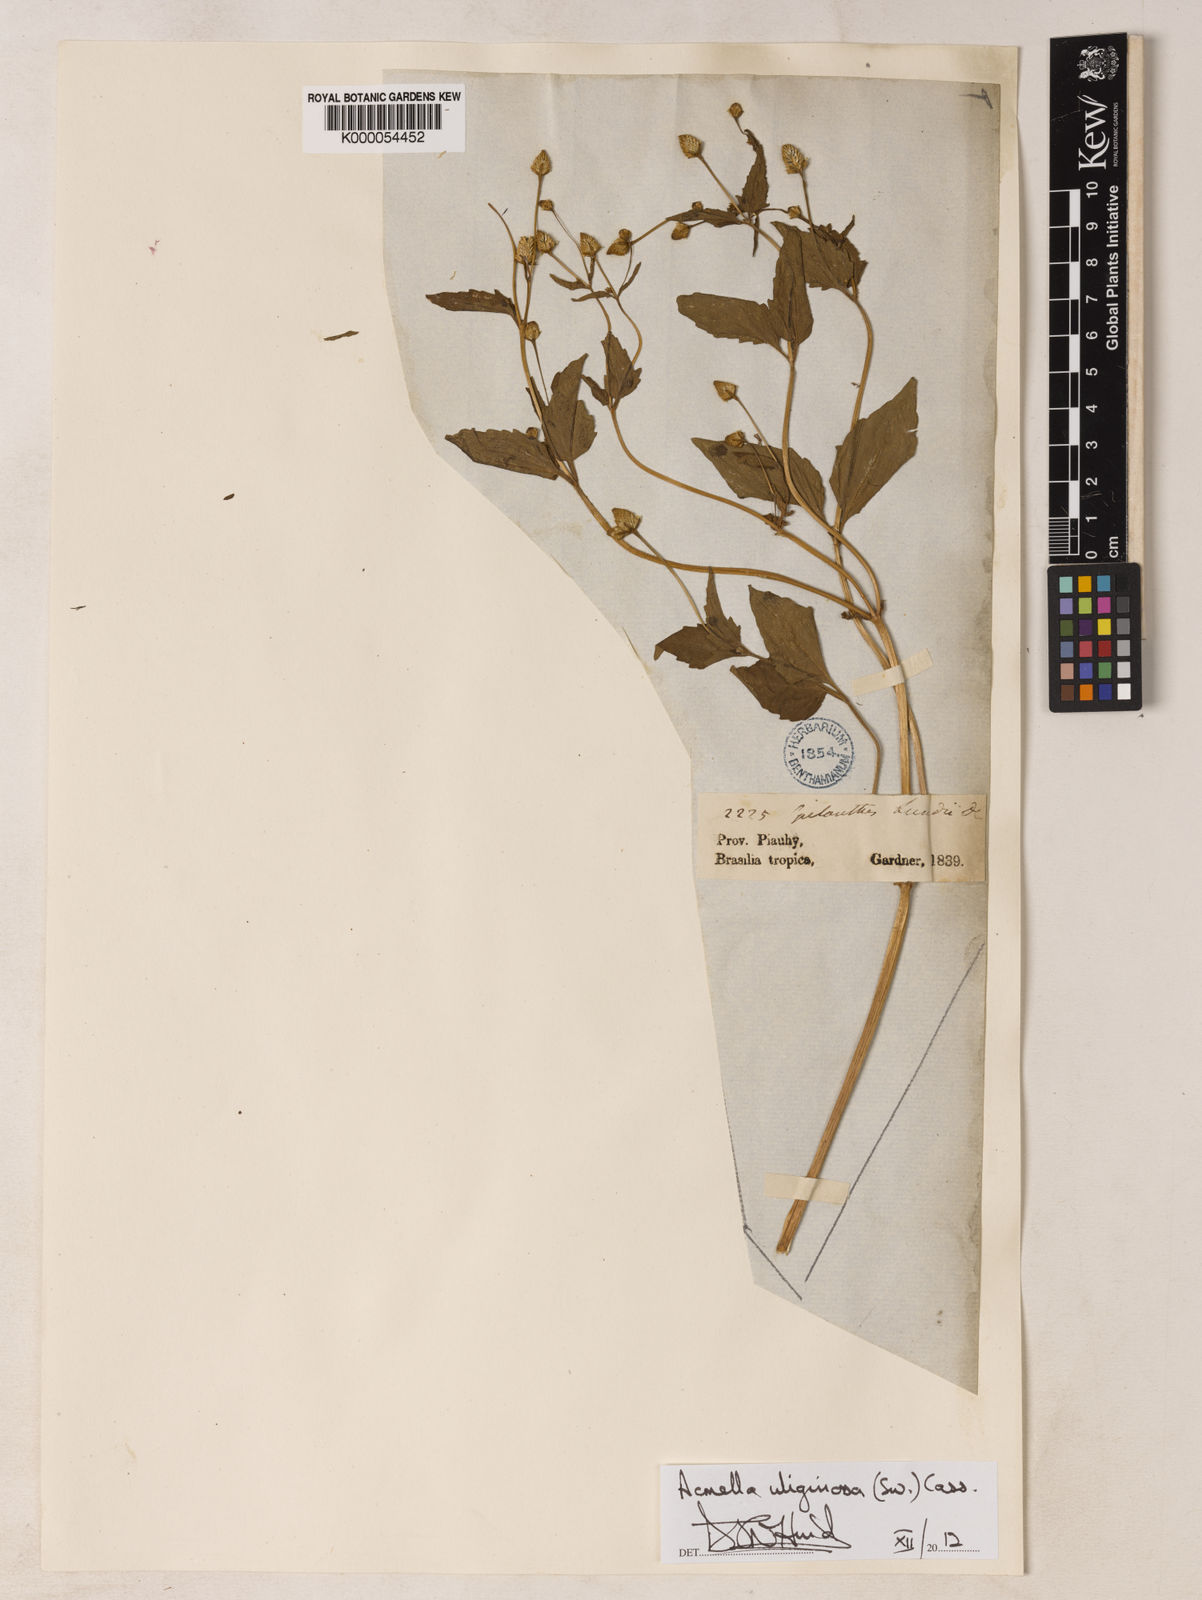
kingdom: Plantae
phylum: Tracheophyta
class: Magnoliopsida
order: Asterales
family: Asteraceae
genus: Acmella
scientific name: Acmella uliginosa
